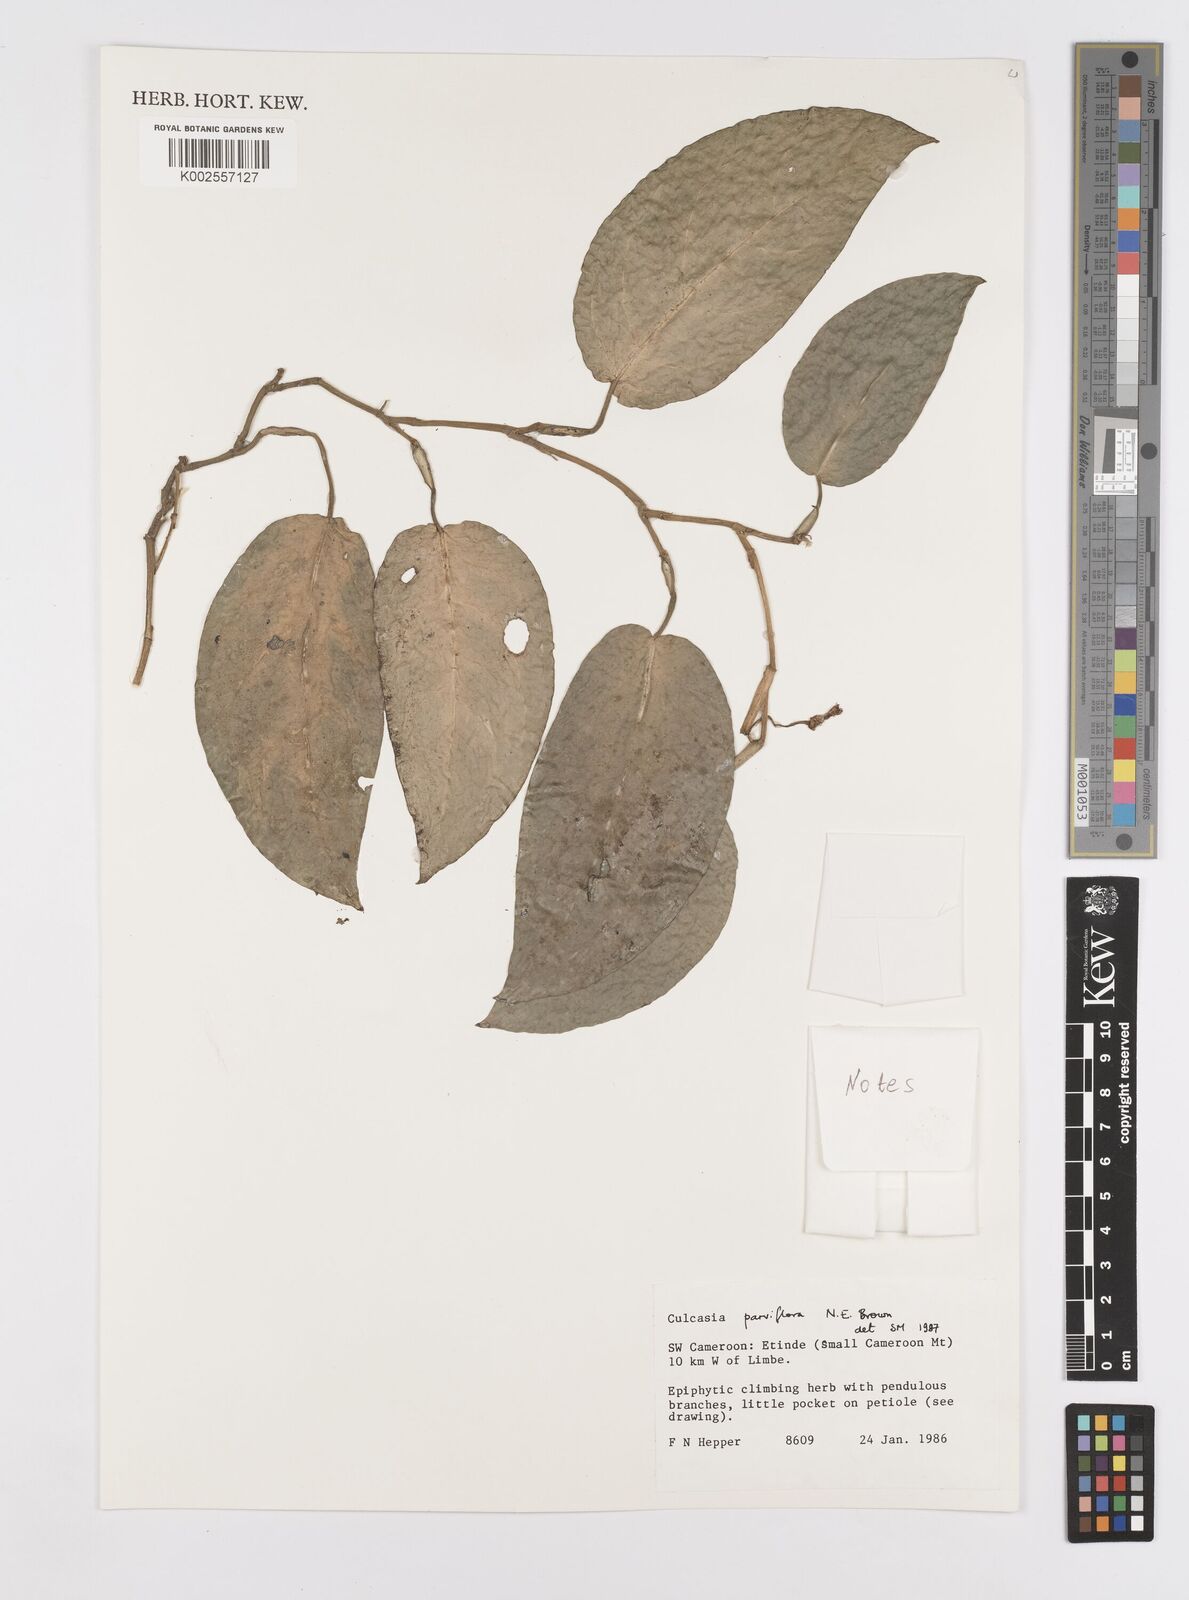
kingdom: Plantae
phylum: Tracheophyta
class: Liliopsida
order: Alismatales
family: Araceae
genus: Culcasia
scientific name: Culcasia parviflora
